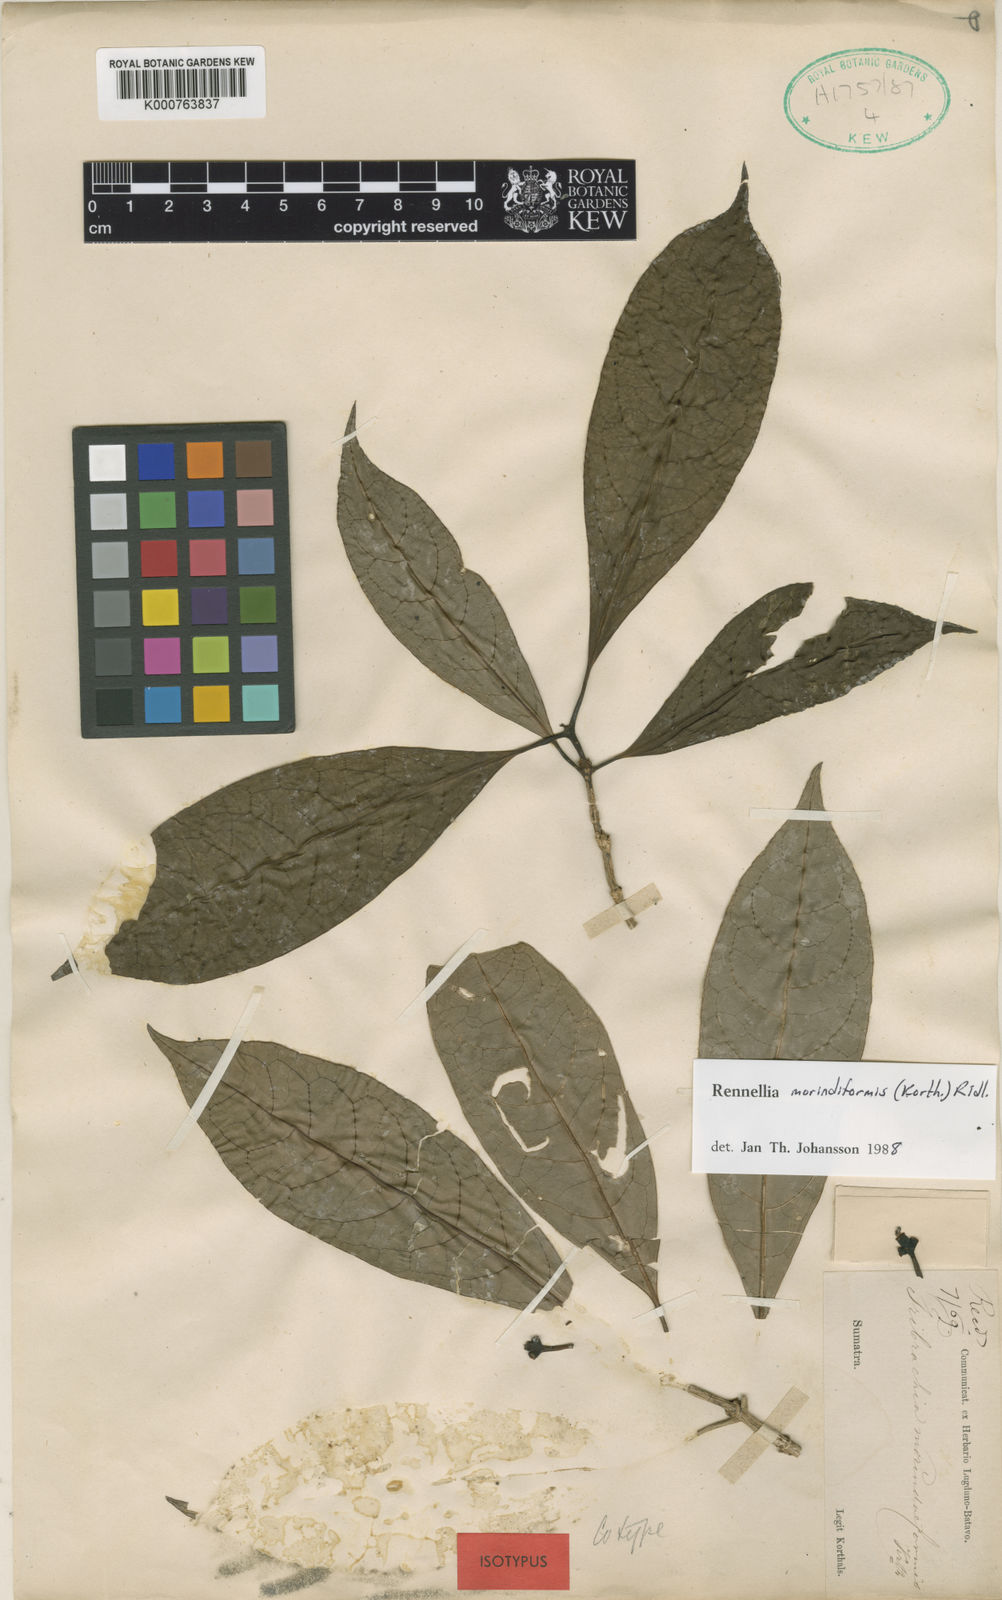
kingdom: Plantae
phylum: Tracheophyta
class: Magnoliopsida
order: Gentianales
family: Rubiaceae
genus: Rennellia
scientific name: Rennellia morindiformis
